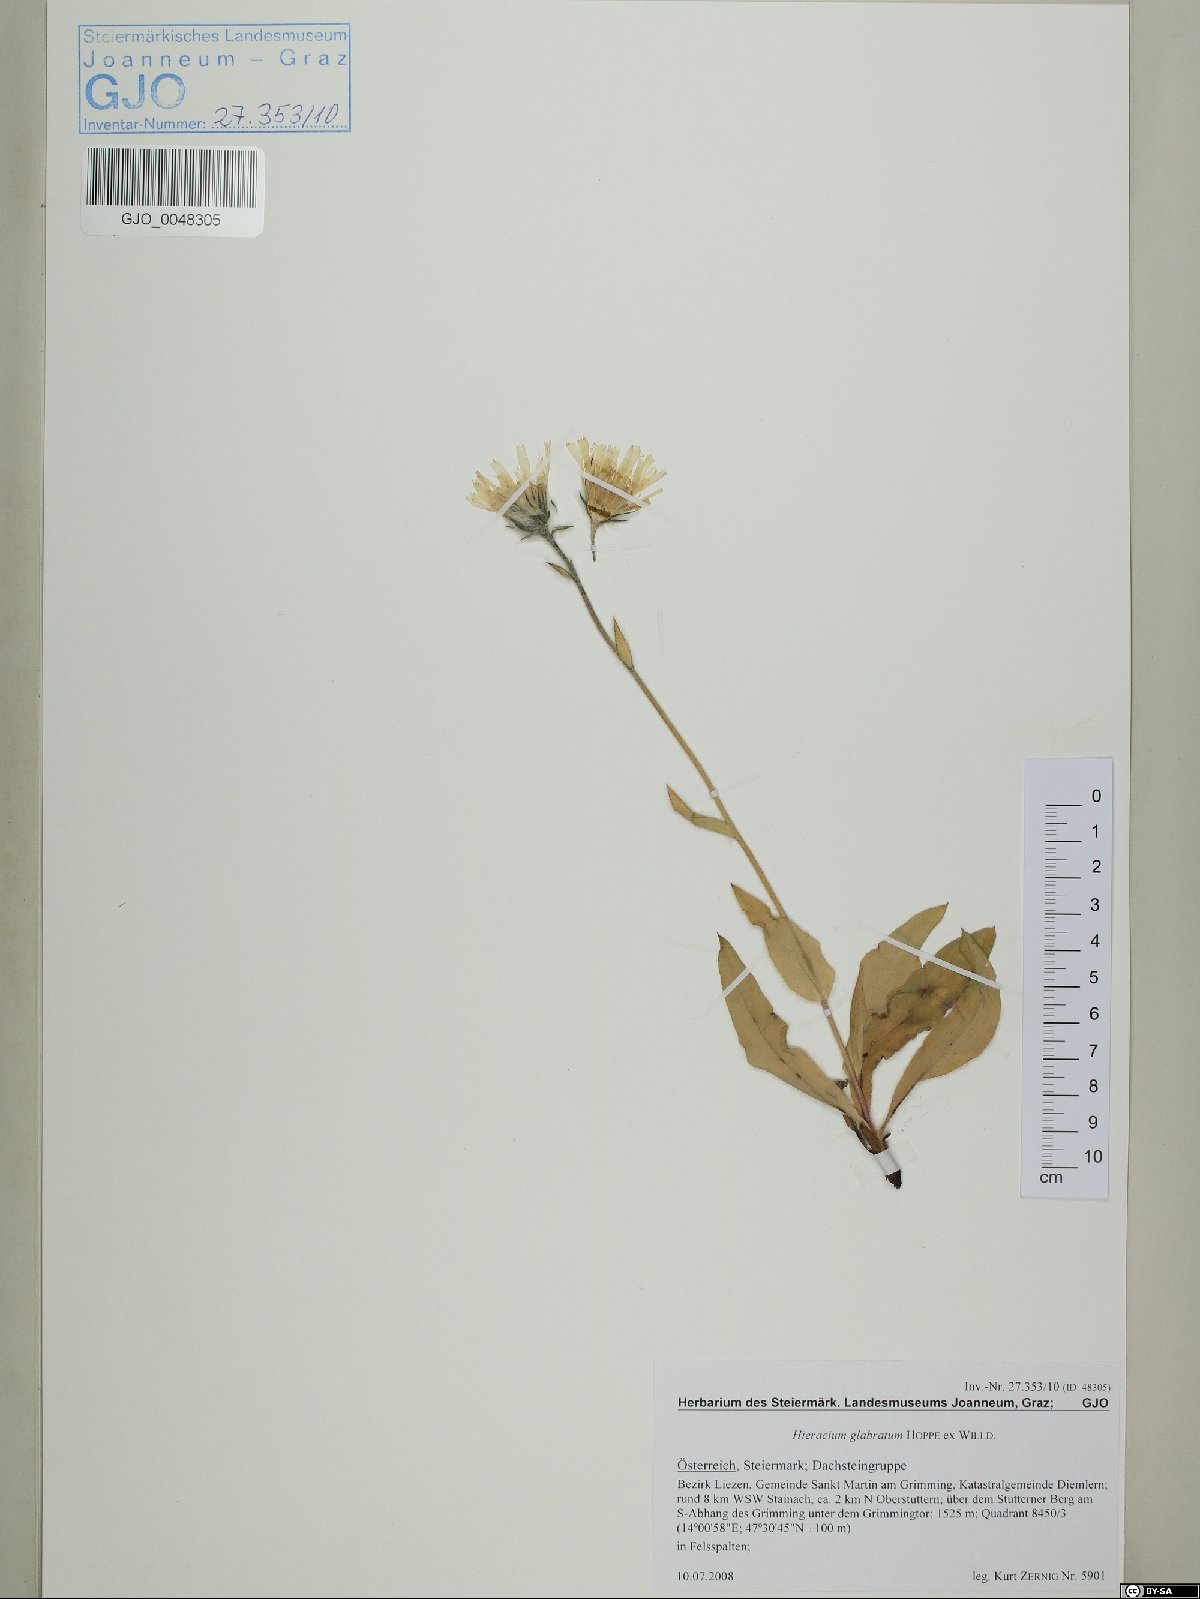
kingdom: Plantae
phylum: Tracheophyta
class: Magnoliopsida
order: Asterales
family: Asteraceae
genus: Hieracium
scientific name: Hieracium glabratum
